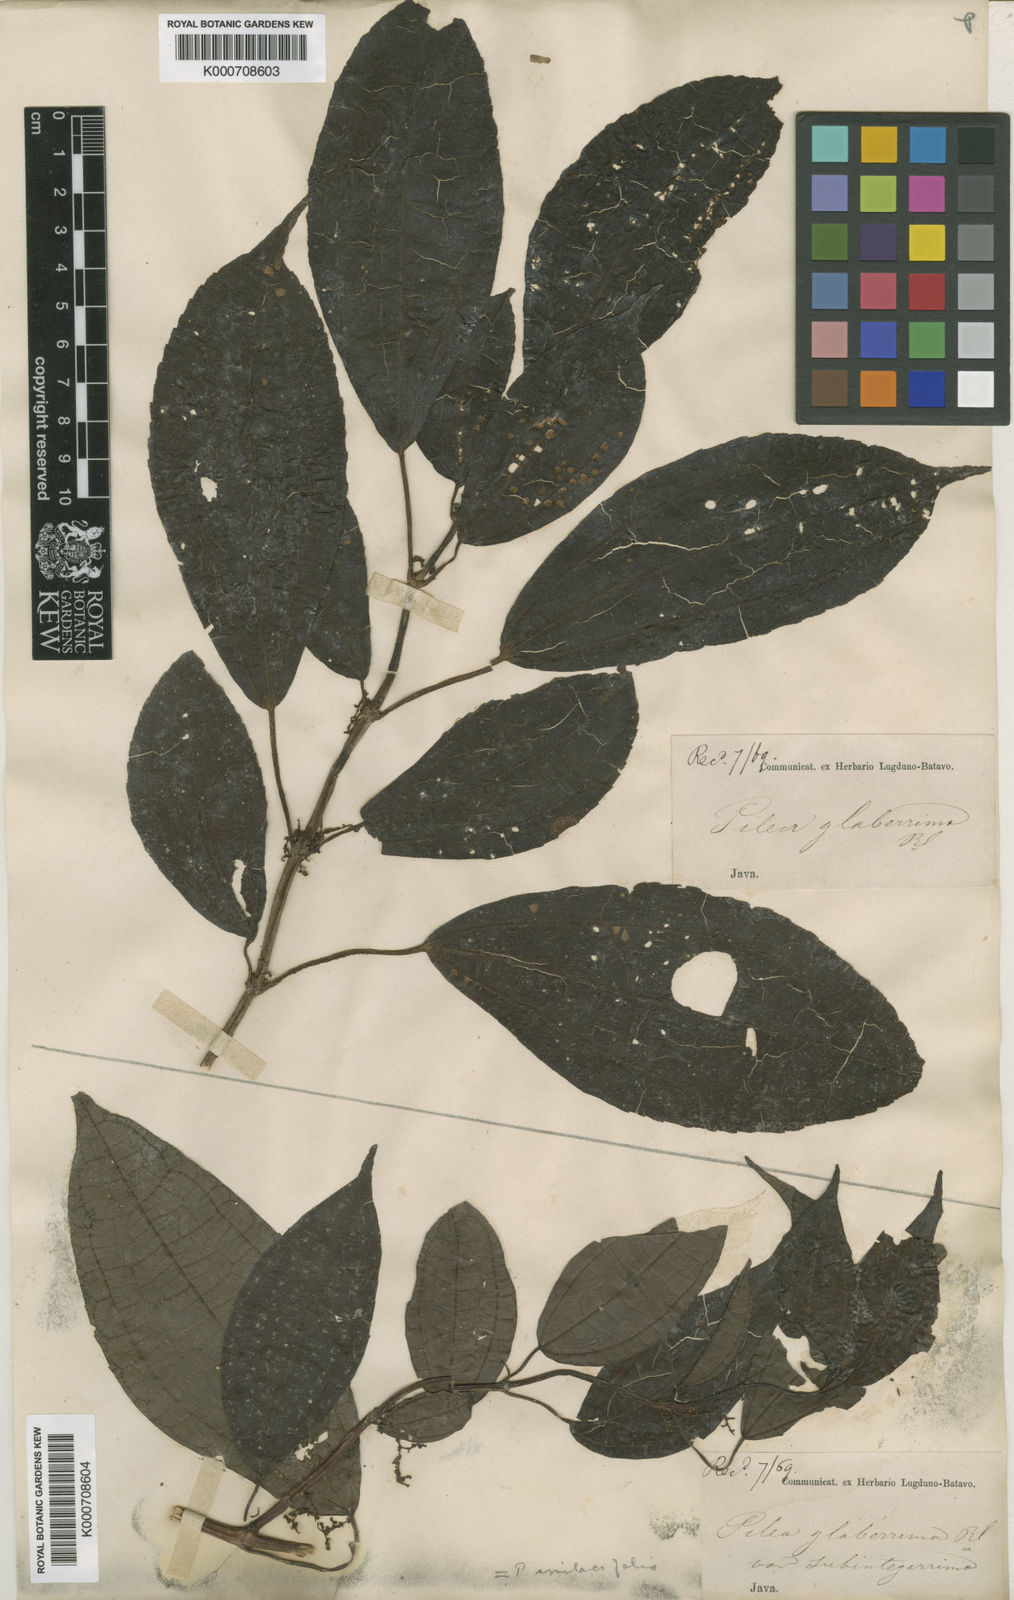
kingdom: Plantae
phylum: Tracheophyta
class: Magnoliopsida
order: Rosales
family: Urticaceae
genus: Pilea
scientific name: Pilea glaberrima
